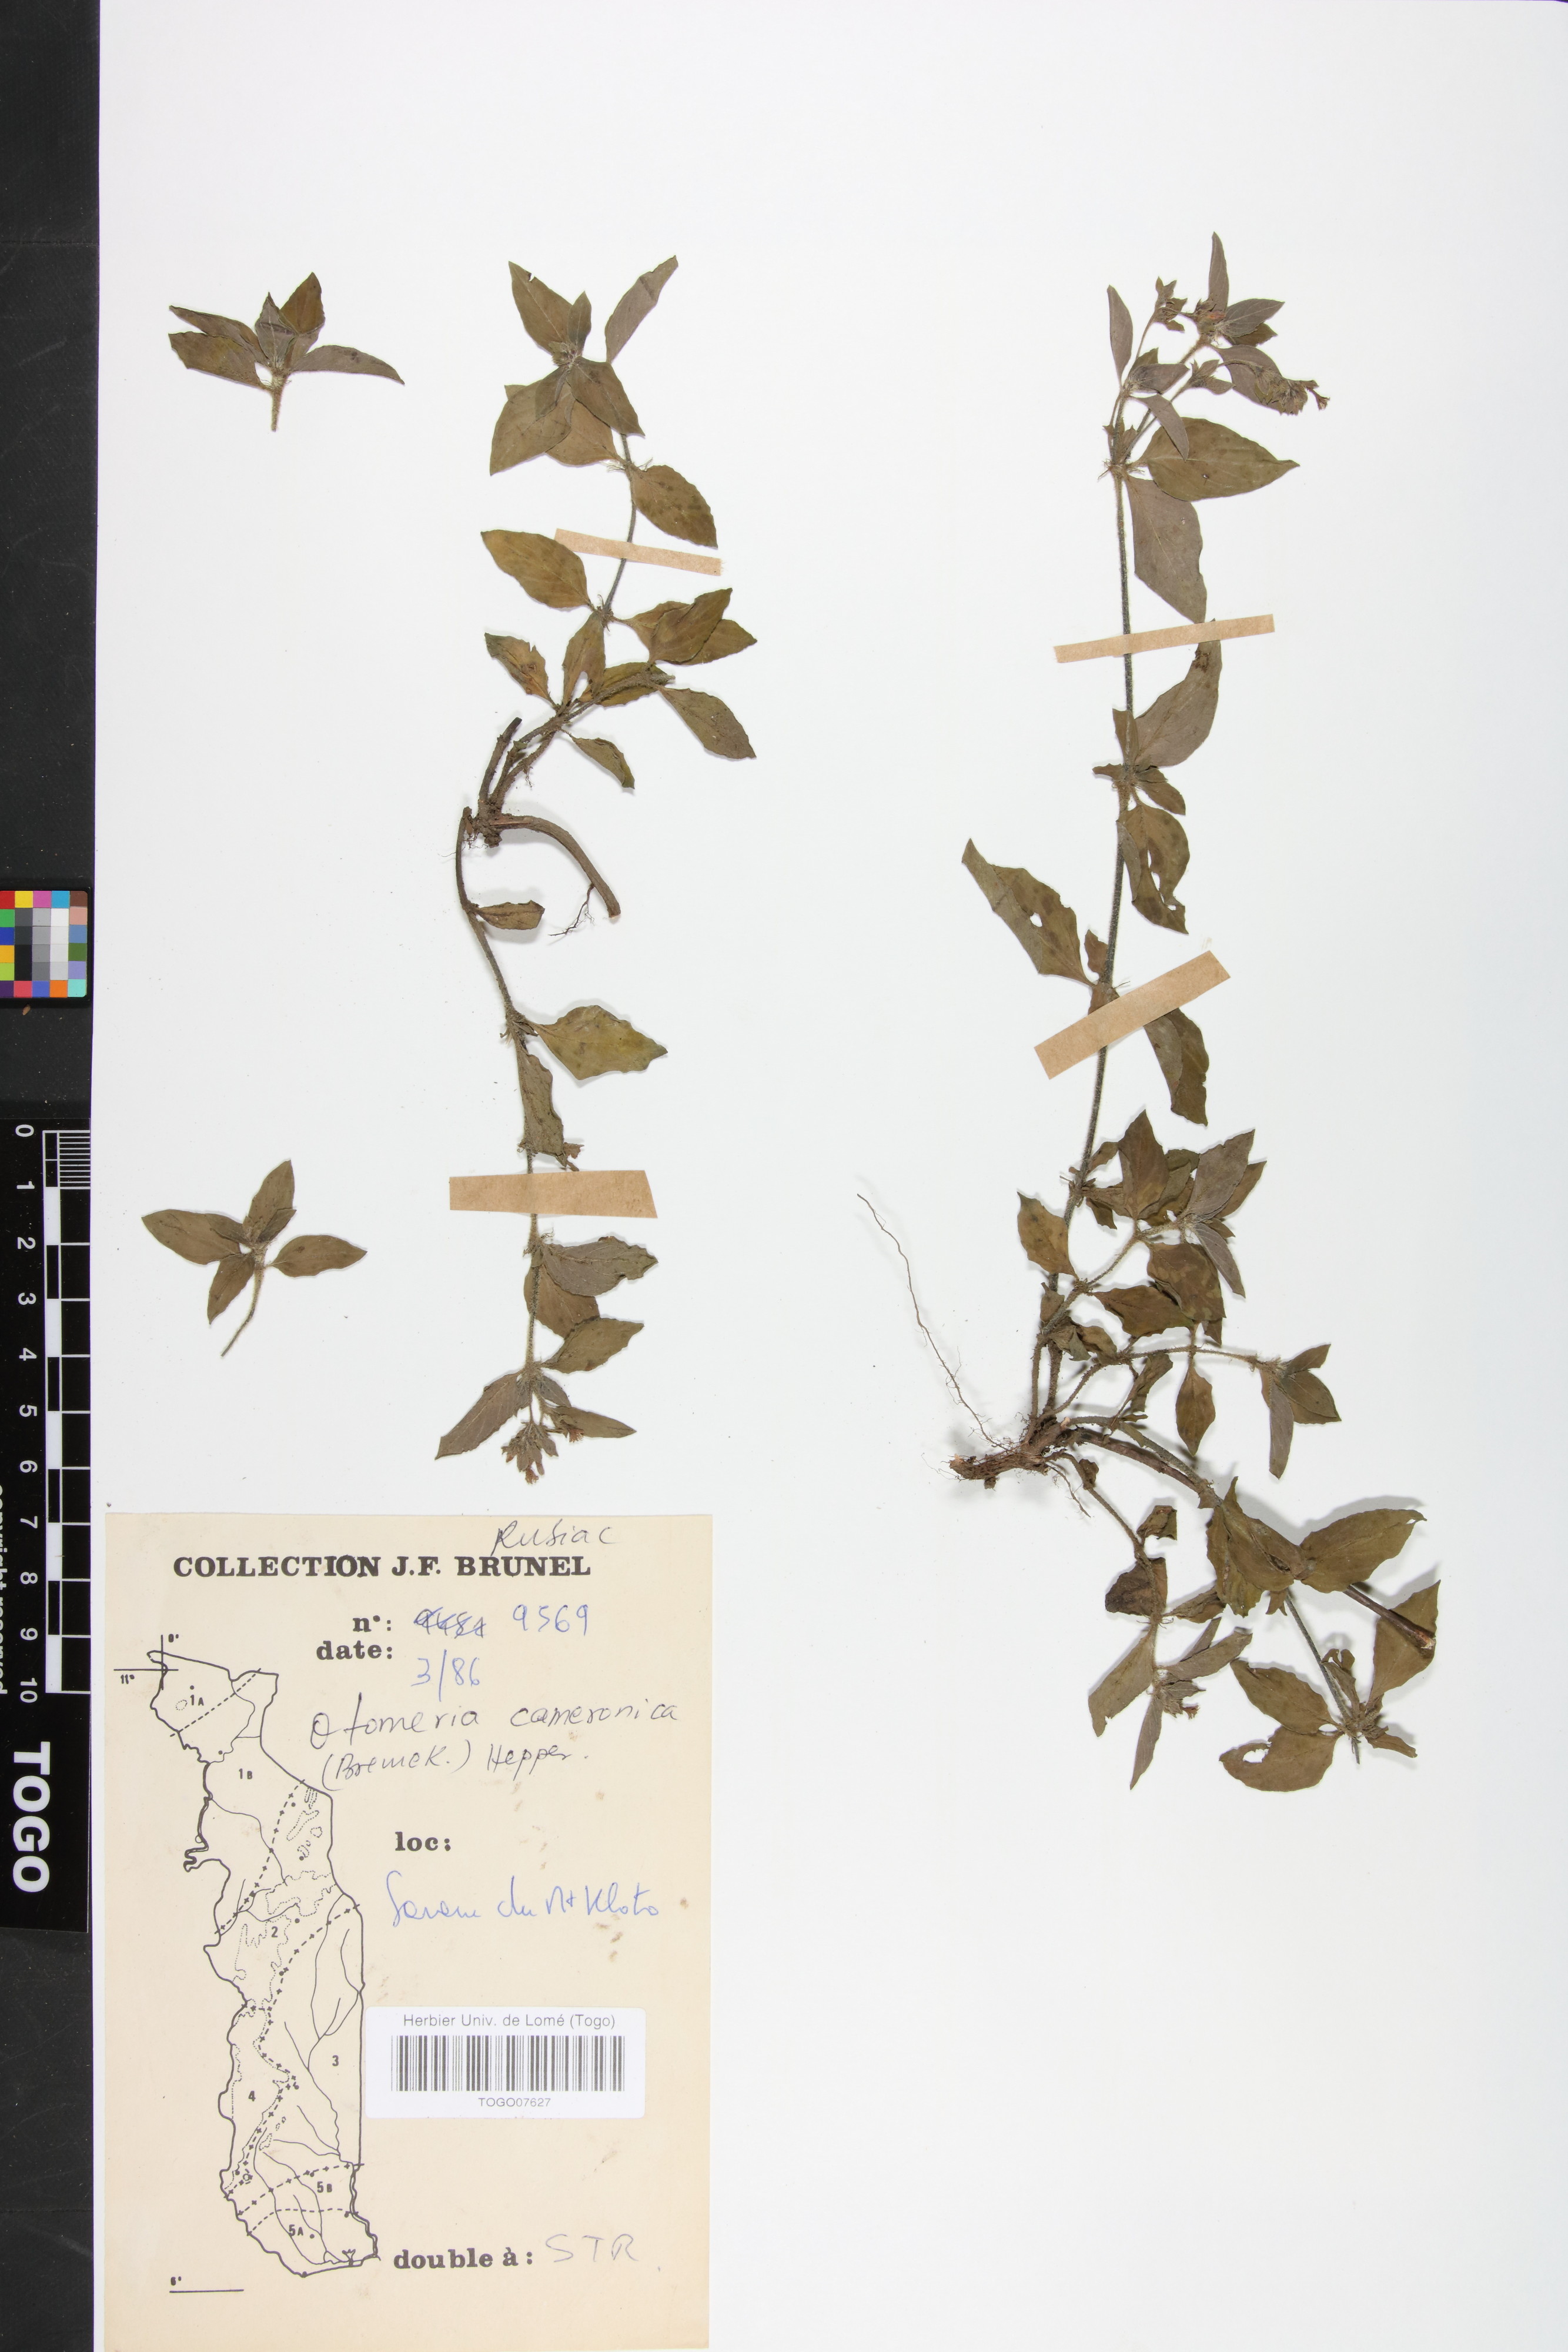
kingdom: Plantae
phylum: Tracheophyta
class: Magnoliopsida
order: Gentianales
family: Rubiaceae
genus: Otomeria
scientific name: Otomeria cameronica
